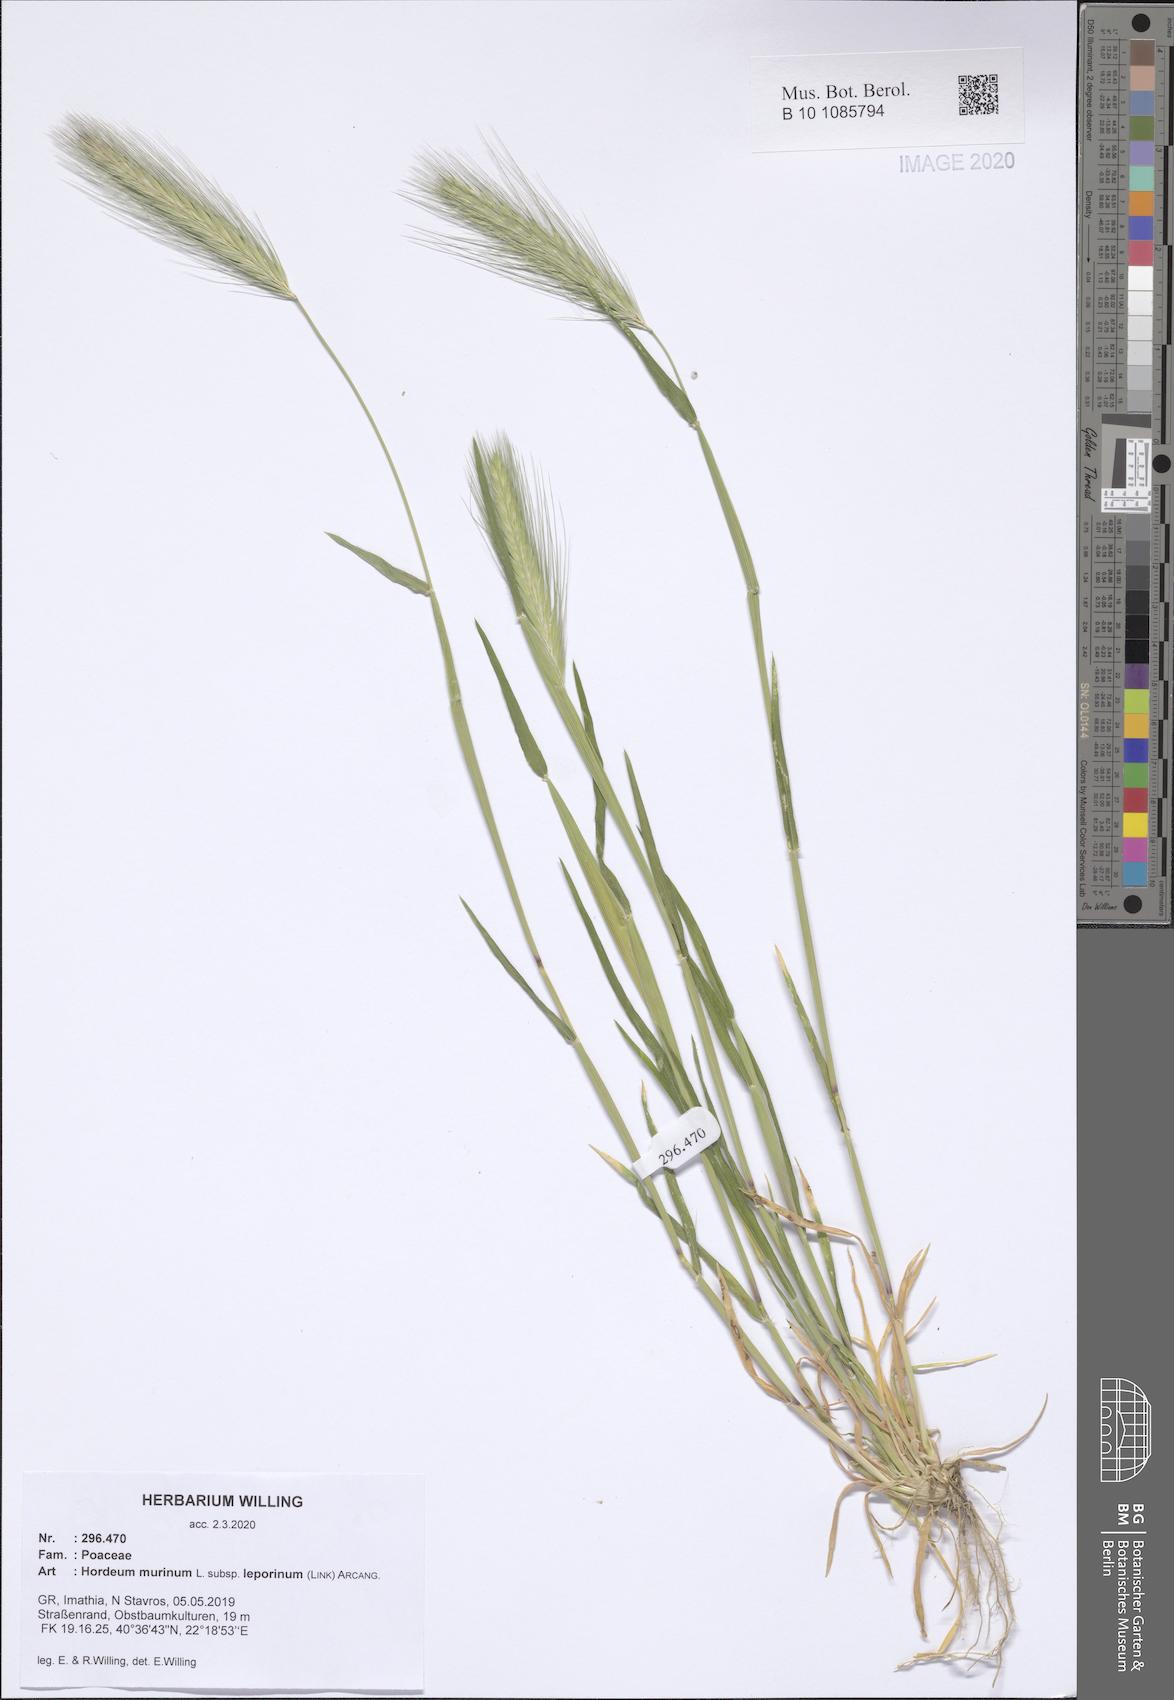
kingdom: Plantae
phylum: Tracheophyta
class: Liliopsida
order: Poales
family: Poaceae
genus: Hordeum
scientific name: Hordeum murinum
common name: Wall barley
